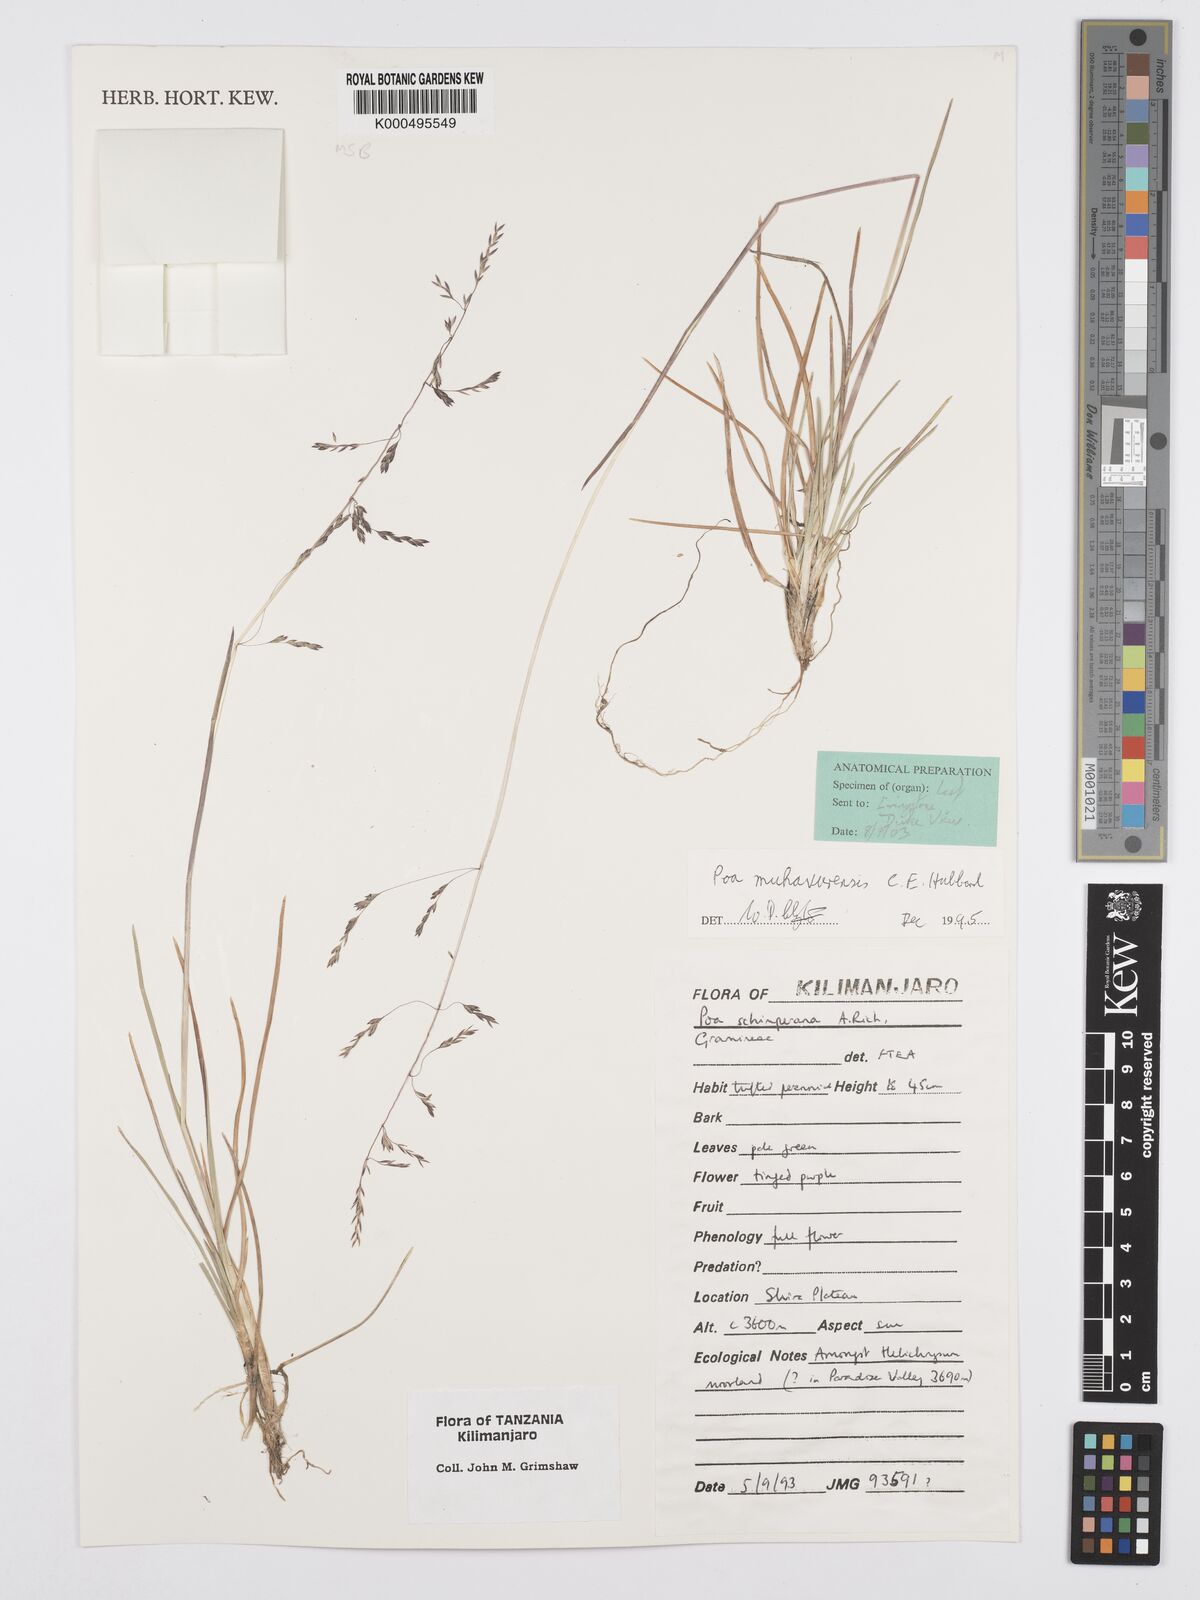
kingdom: Plantae
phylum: Tracheophyta
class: Liliopsida
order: Poales
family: Poaceae
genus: Poa
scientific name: Poa schimperiana
